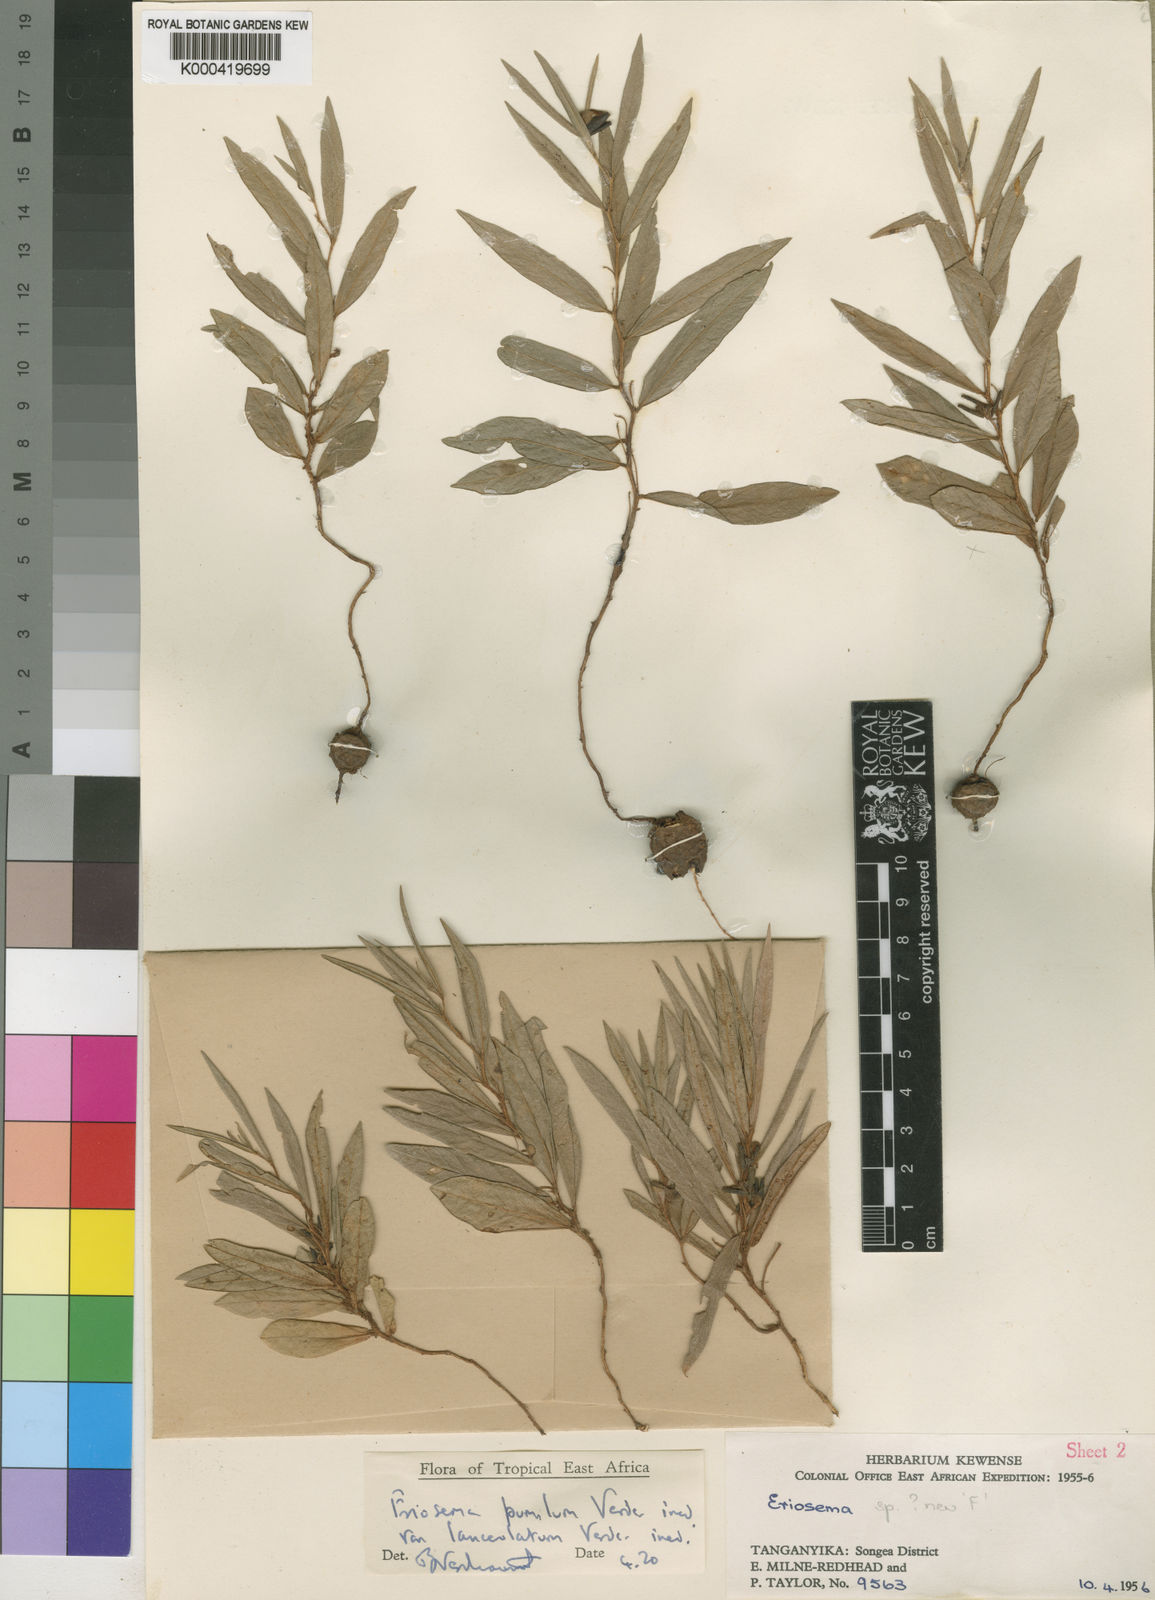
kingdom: Plantae
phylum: Tracheophyta
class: Magnoliopsida
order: Fabales
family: Fabaceae
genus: Eriosema
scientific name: Eriosema pumilum
